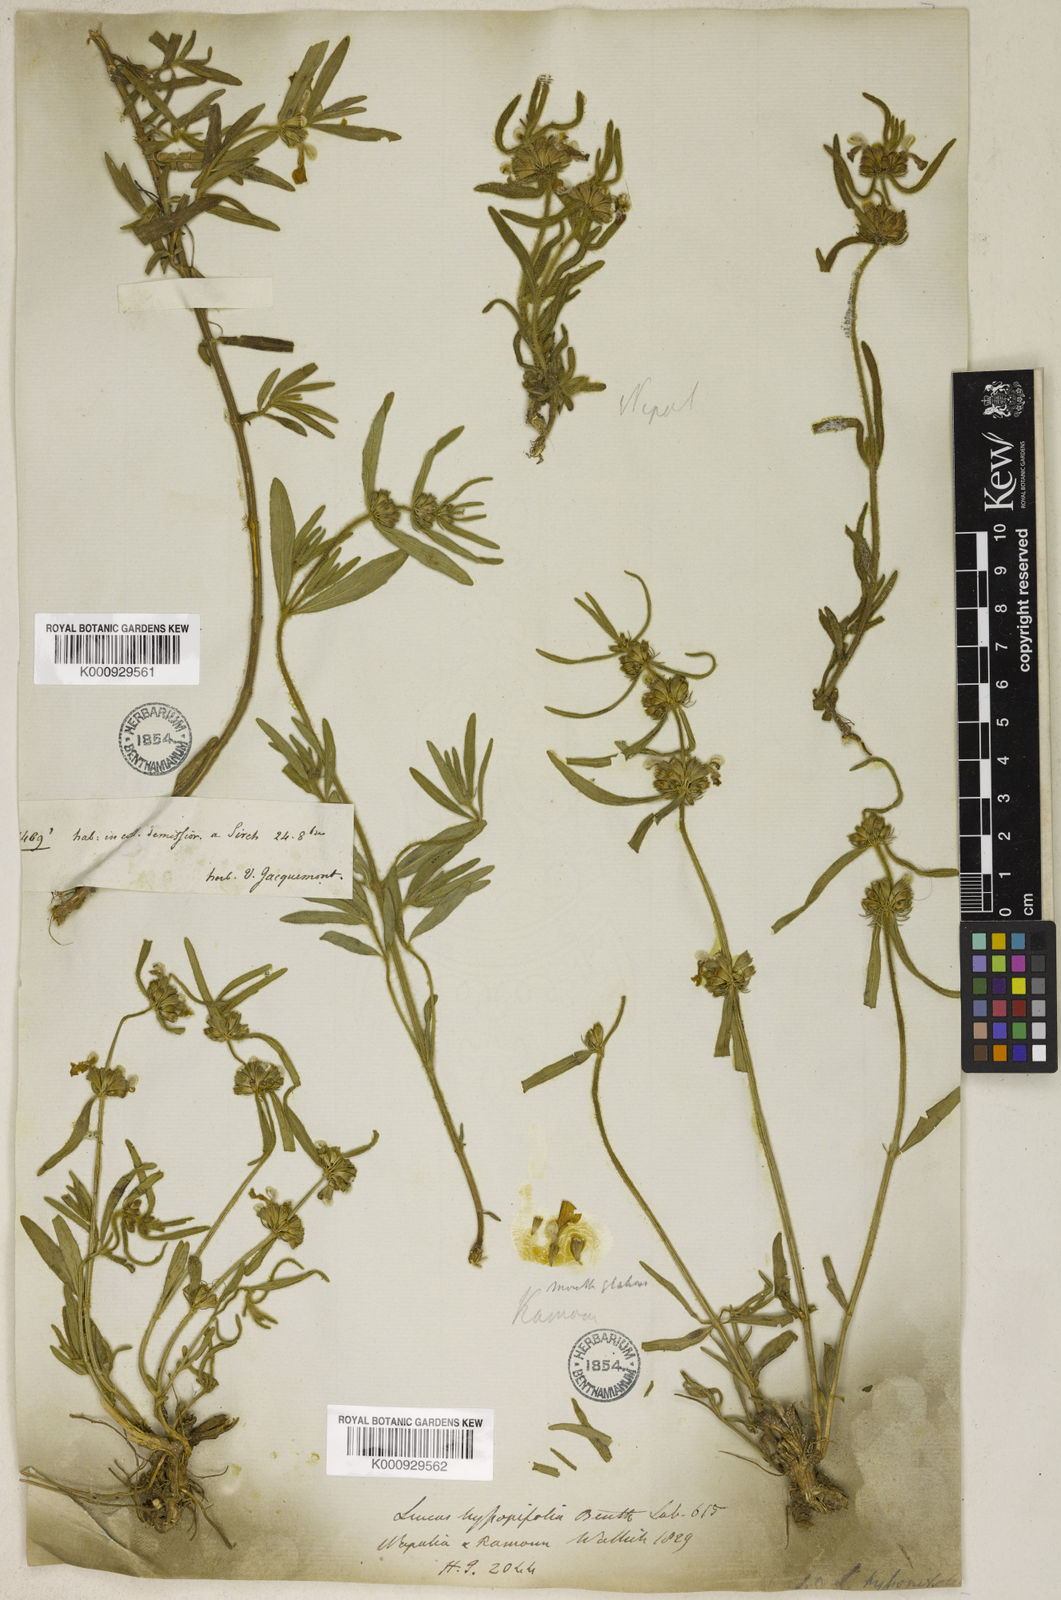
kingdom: Plantae
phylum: Tracheophyta
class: Magnoliopsida
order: Lamiales
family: Lamiaceae
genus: Leucas
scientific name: Leucas hyssopifolia
